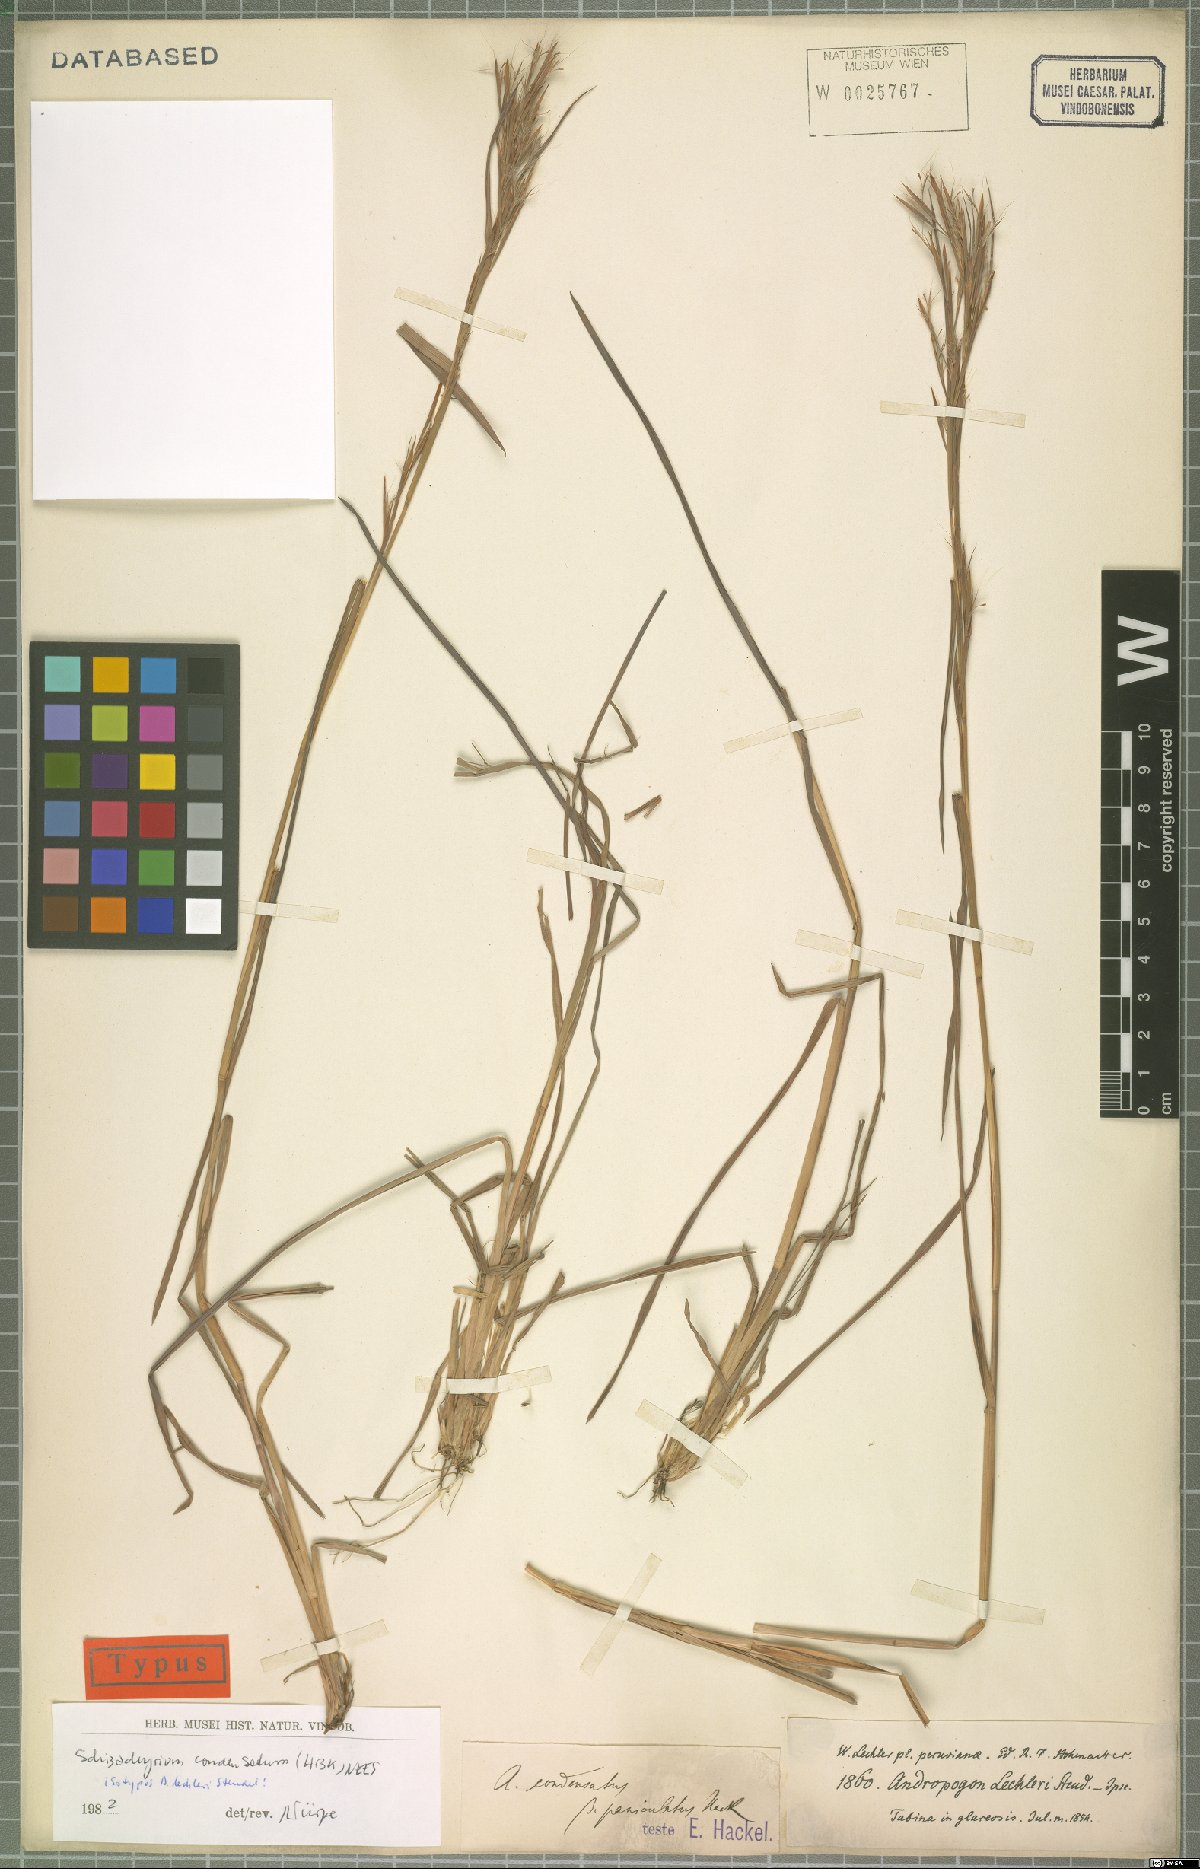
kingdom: Plantae
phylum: Tracheophyta
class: Liliopsida
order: Poales
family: Poaceae
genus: Schizachyrium
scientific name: Schizachyrium condensatum
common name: Bush beardgrass
